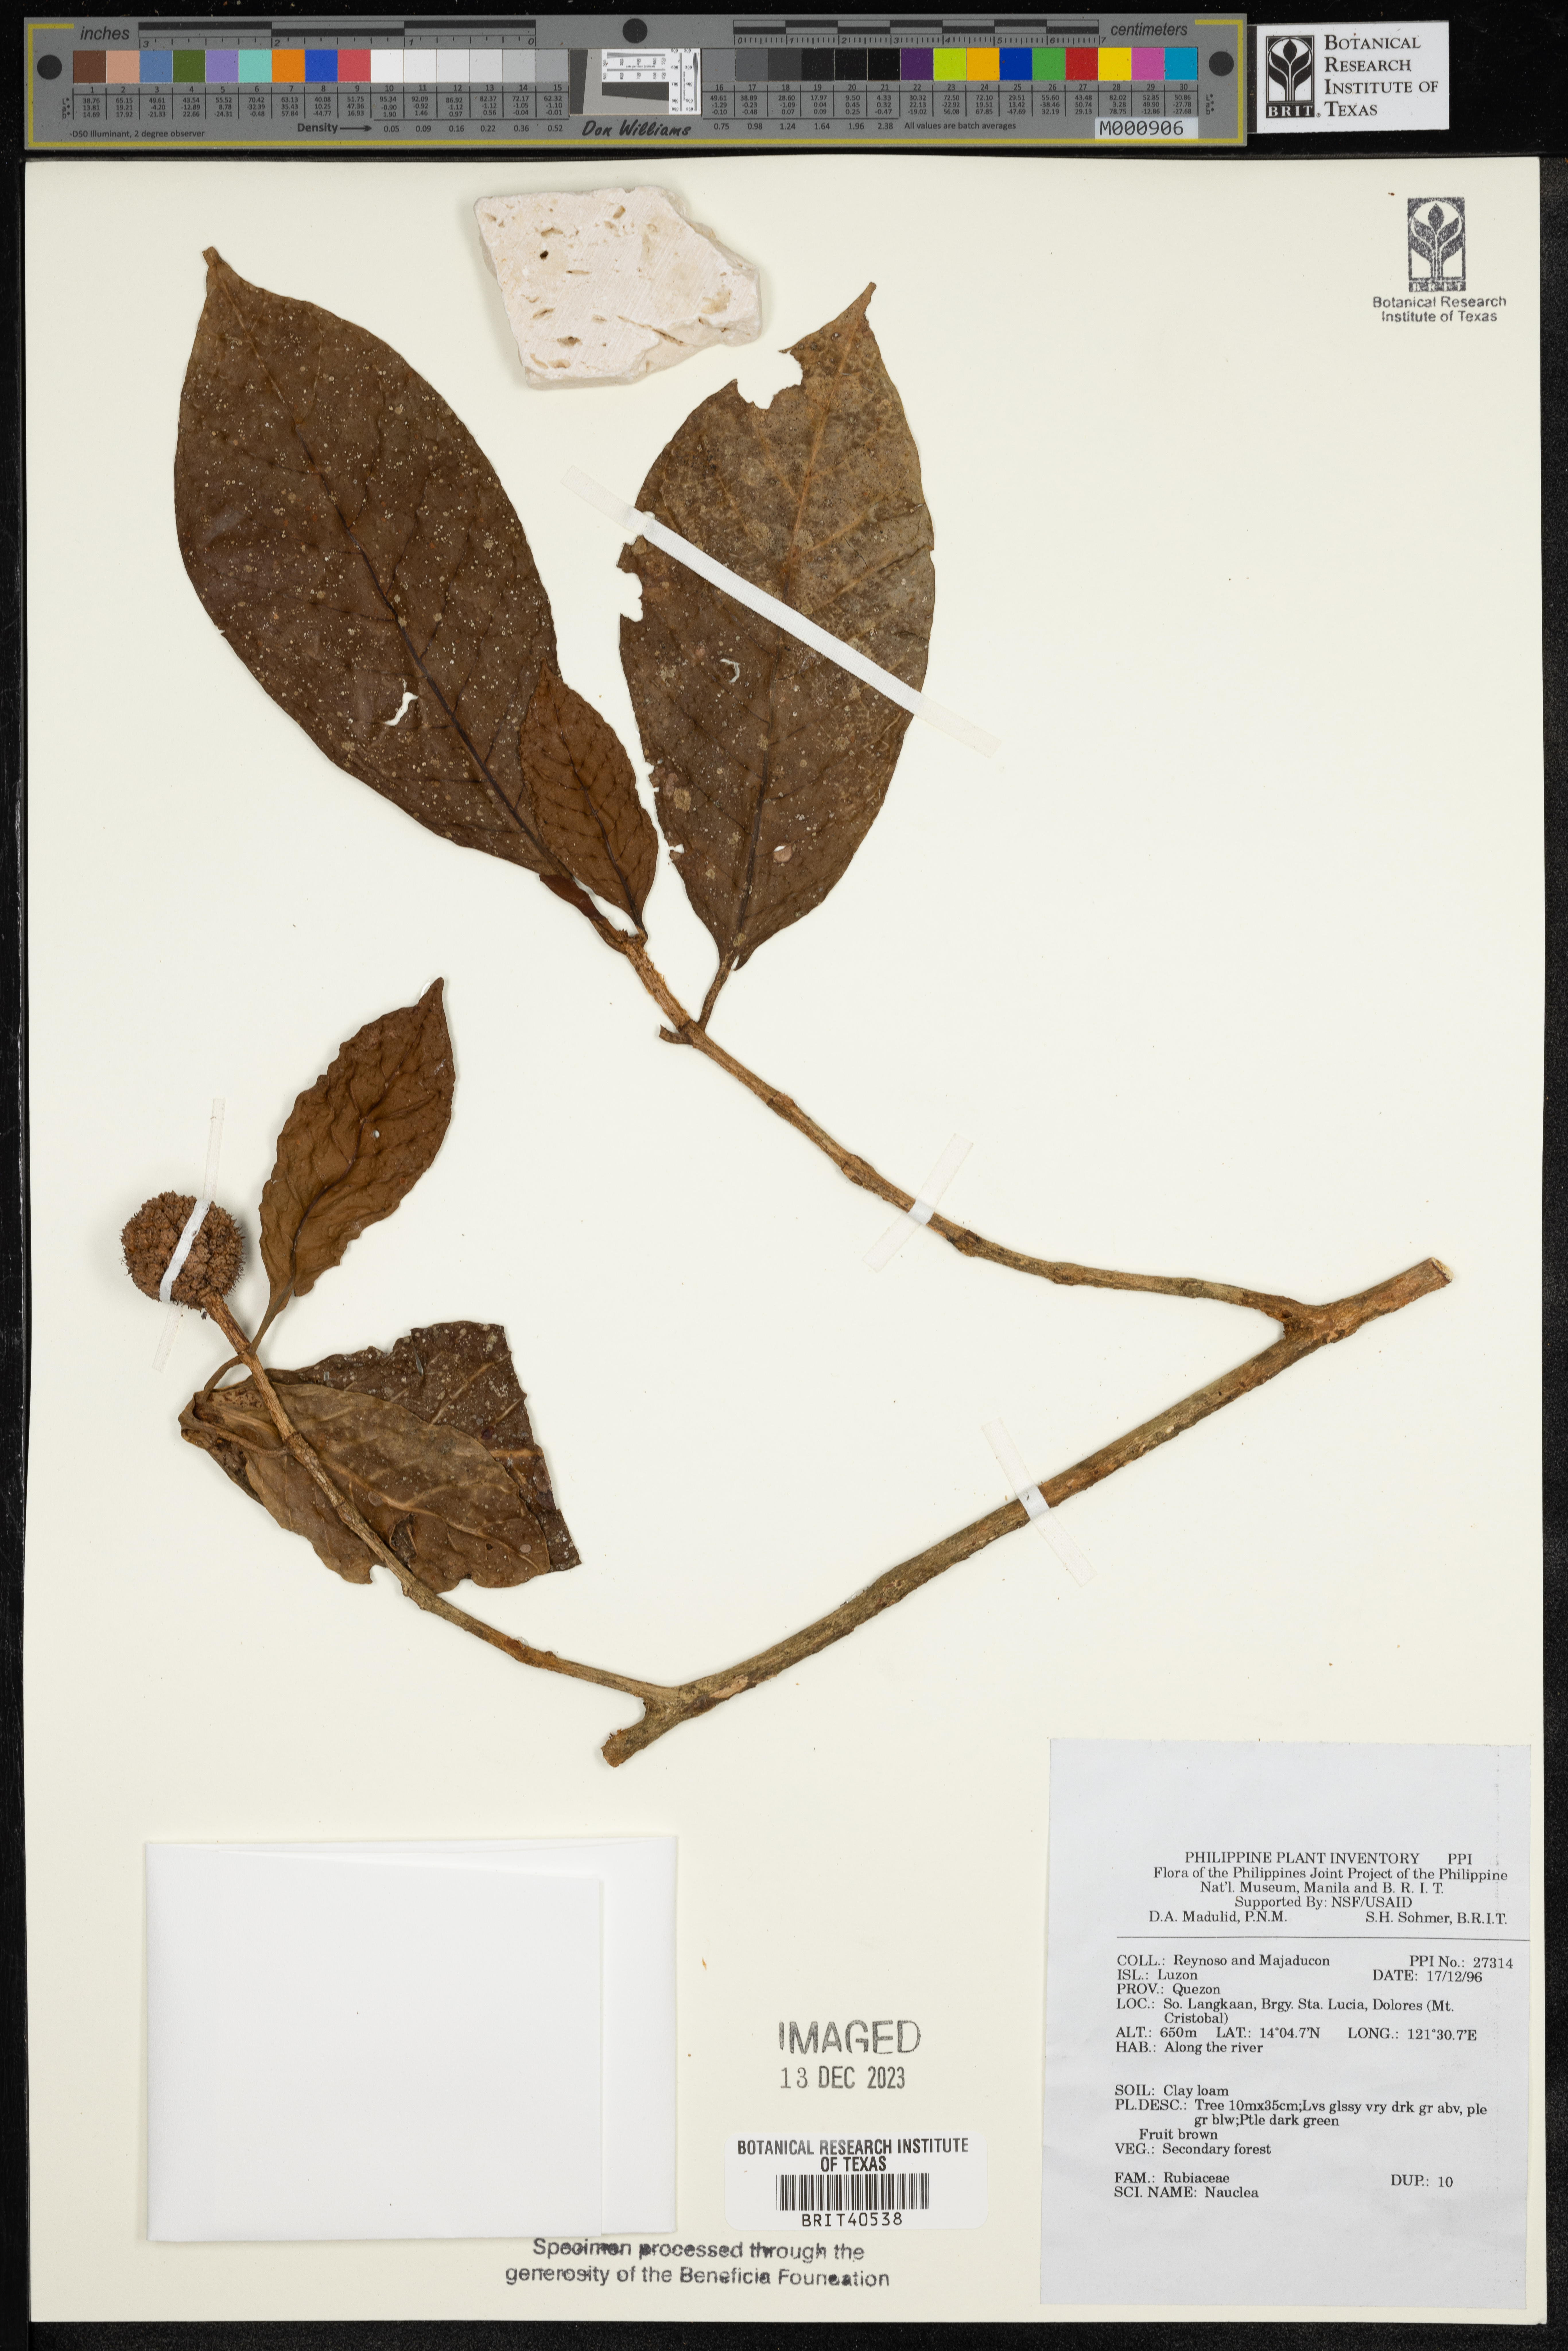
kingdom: Plantae
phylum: Tracheophyta
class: Magnoliopsida
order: Gentianales
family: Rubiaceae
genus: Nauclea
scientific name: Nauclea
